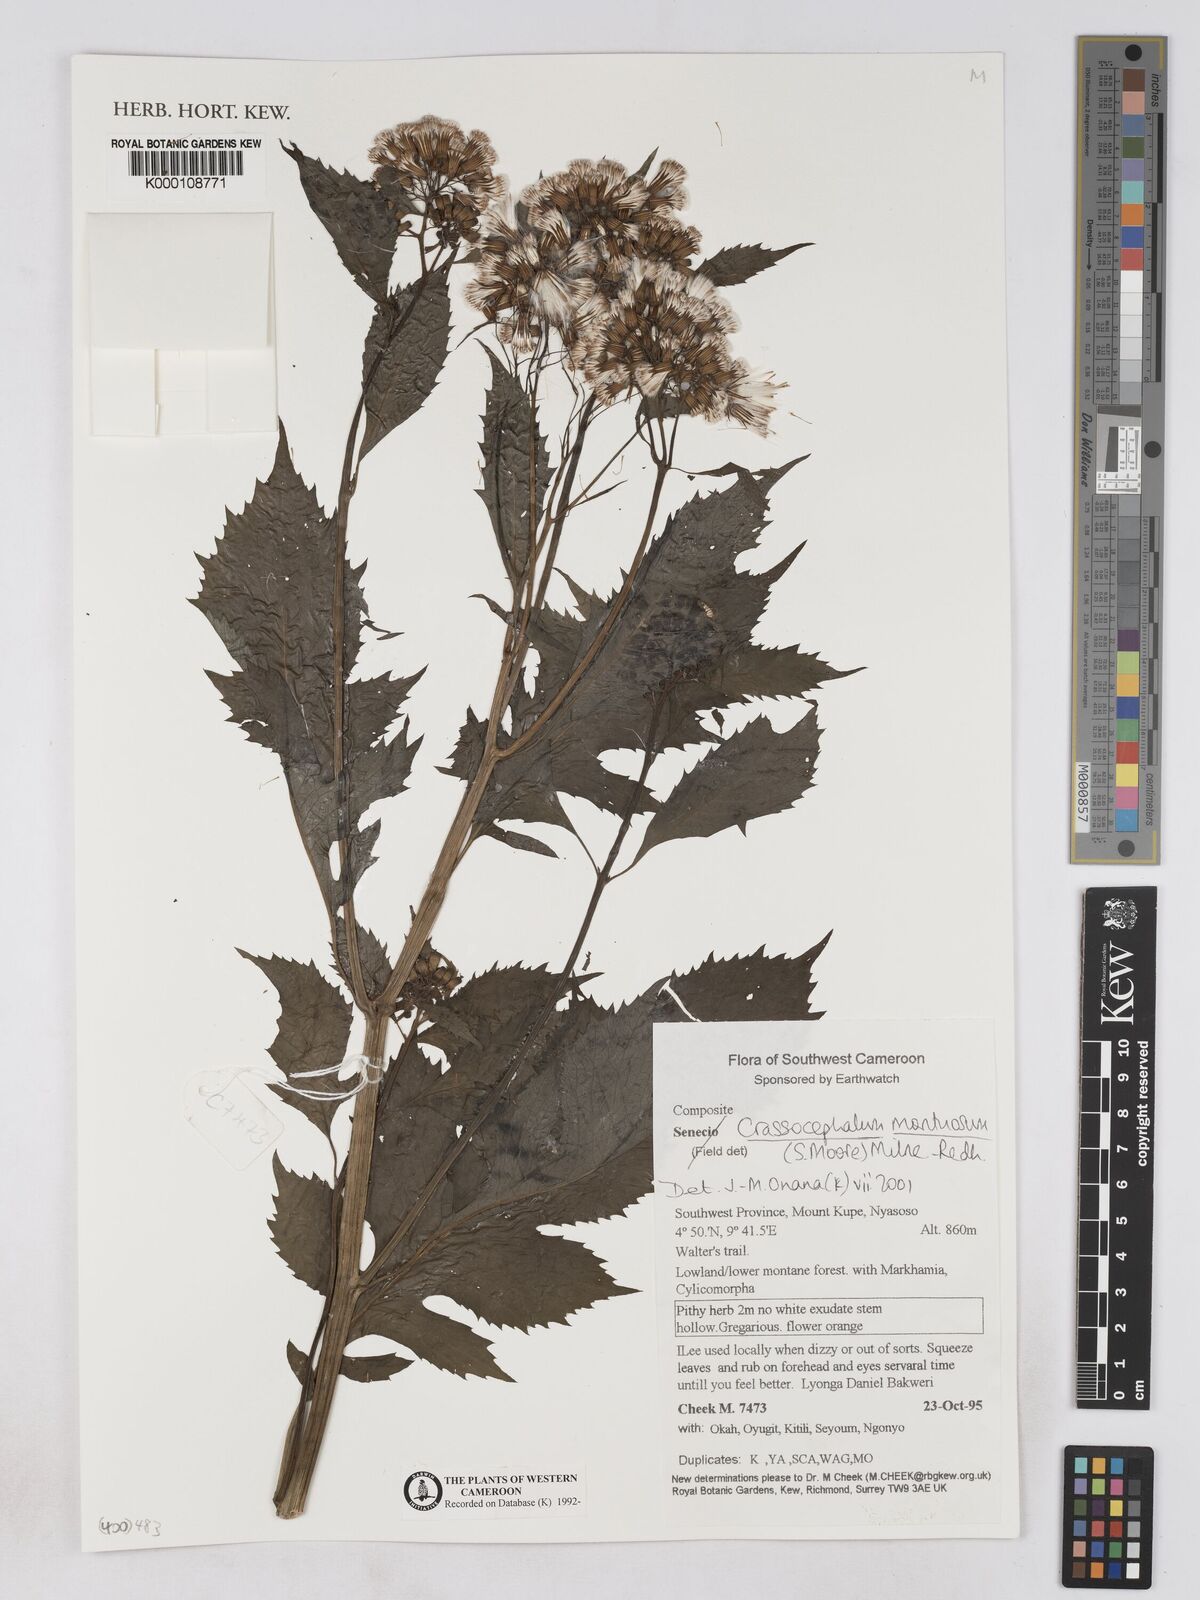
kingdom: Plantae
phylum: Tracheophyta
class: Magnoliopsida
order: Asterales
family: Asteraceae
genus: Crassocephalum
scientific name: Crassocephalum montuosum
